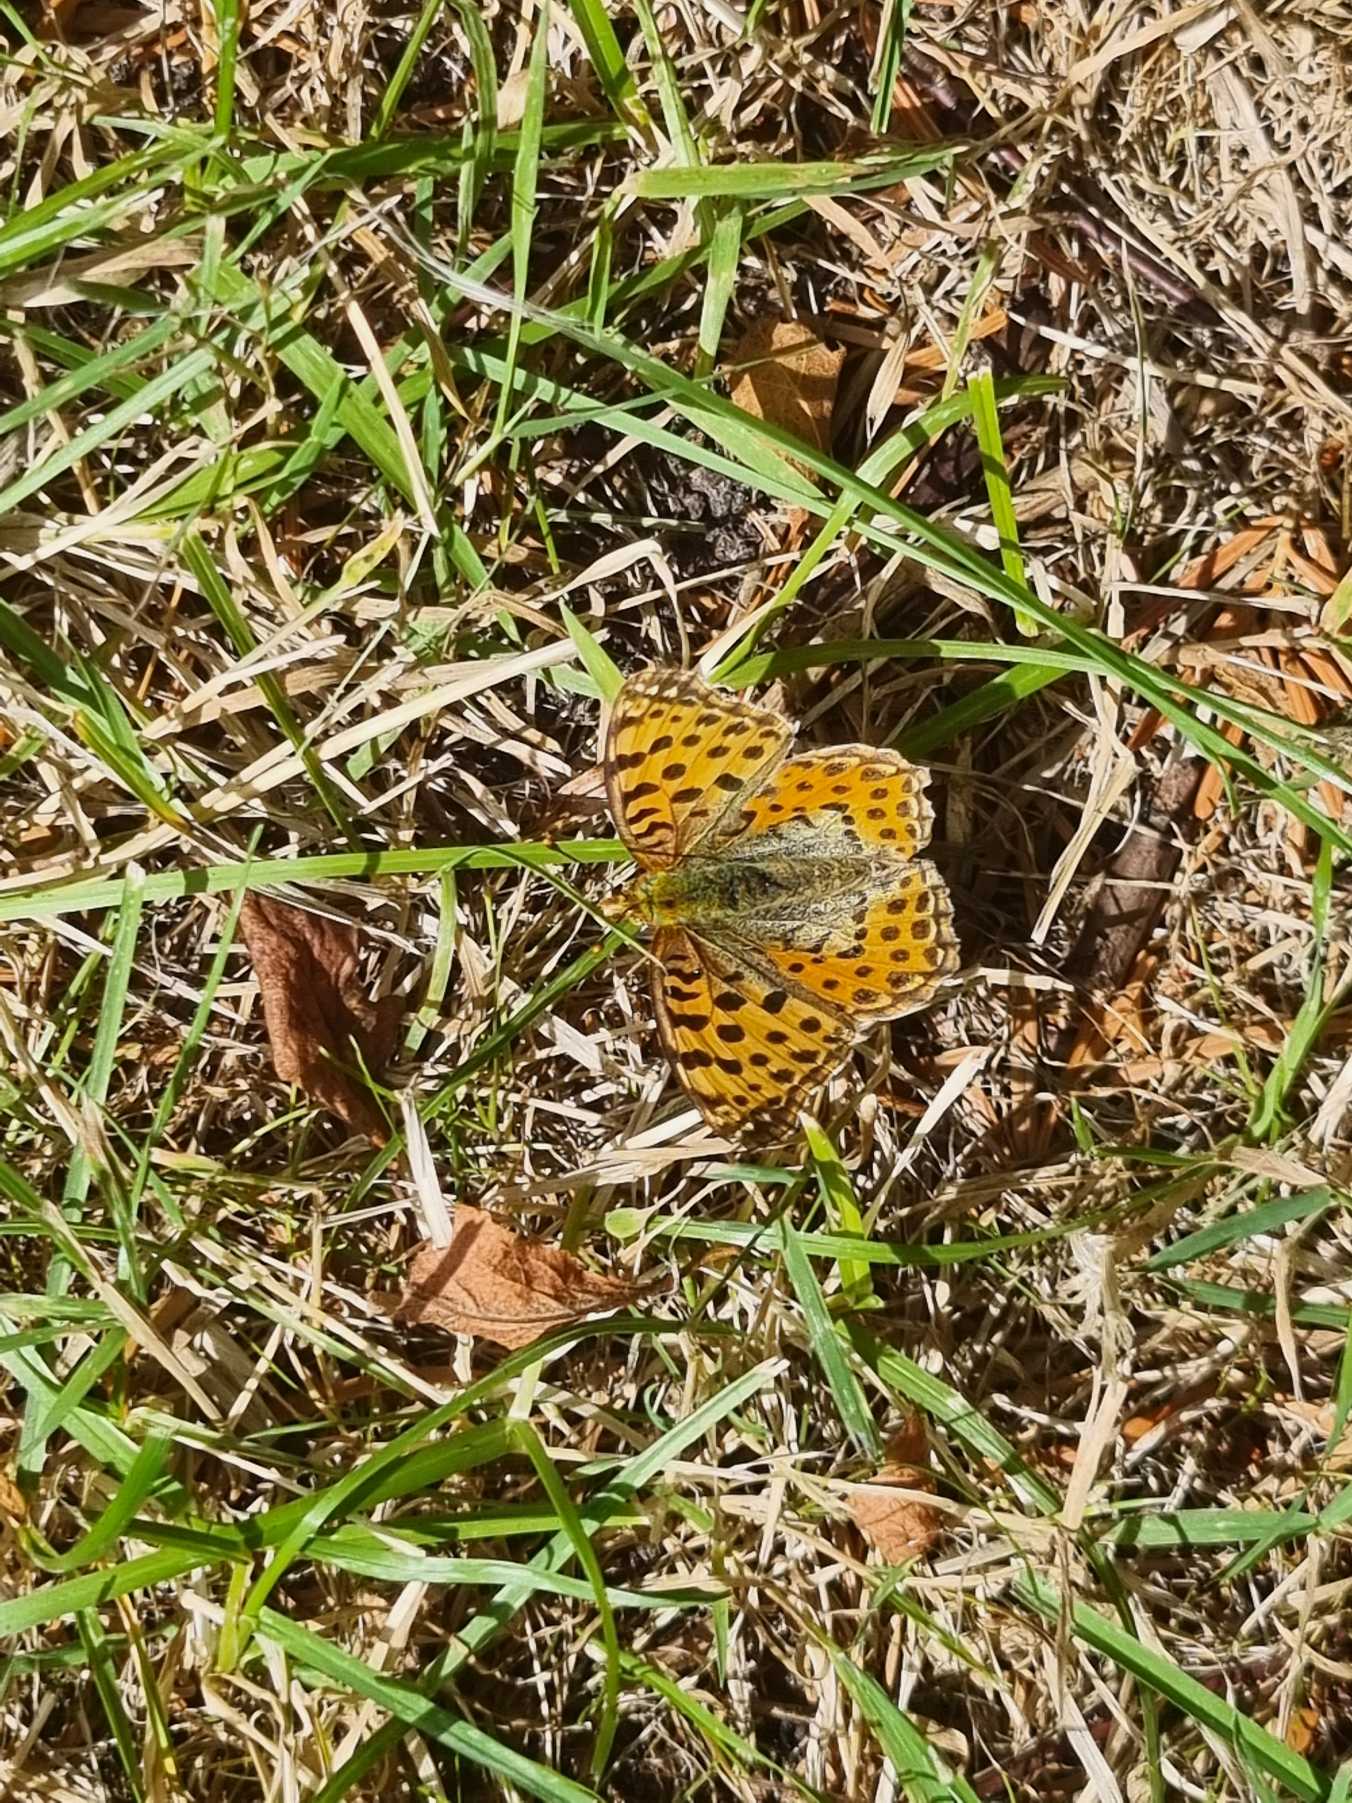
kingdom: Animalia
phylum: Arthropoda
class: Insecta
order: Lepidoptera
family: Nymphalidae
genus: Issoria
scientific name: Issoria lathonia
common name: Storplettet perlemorsommerfugl
